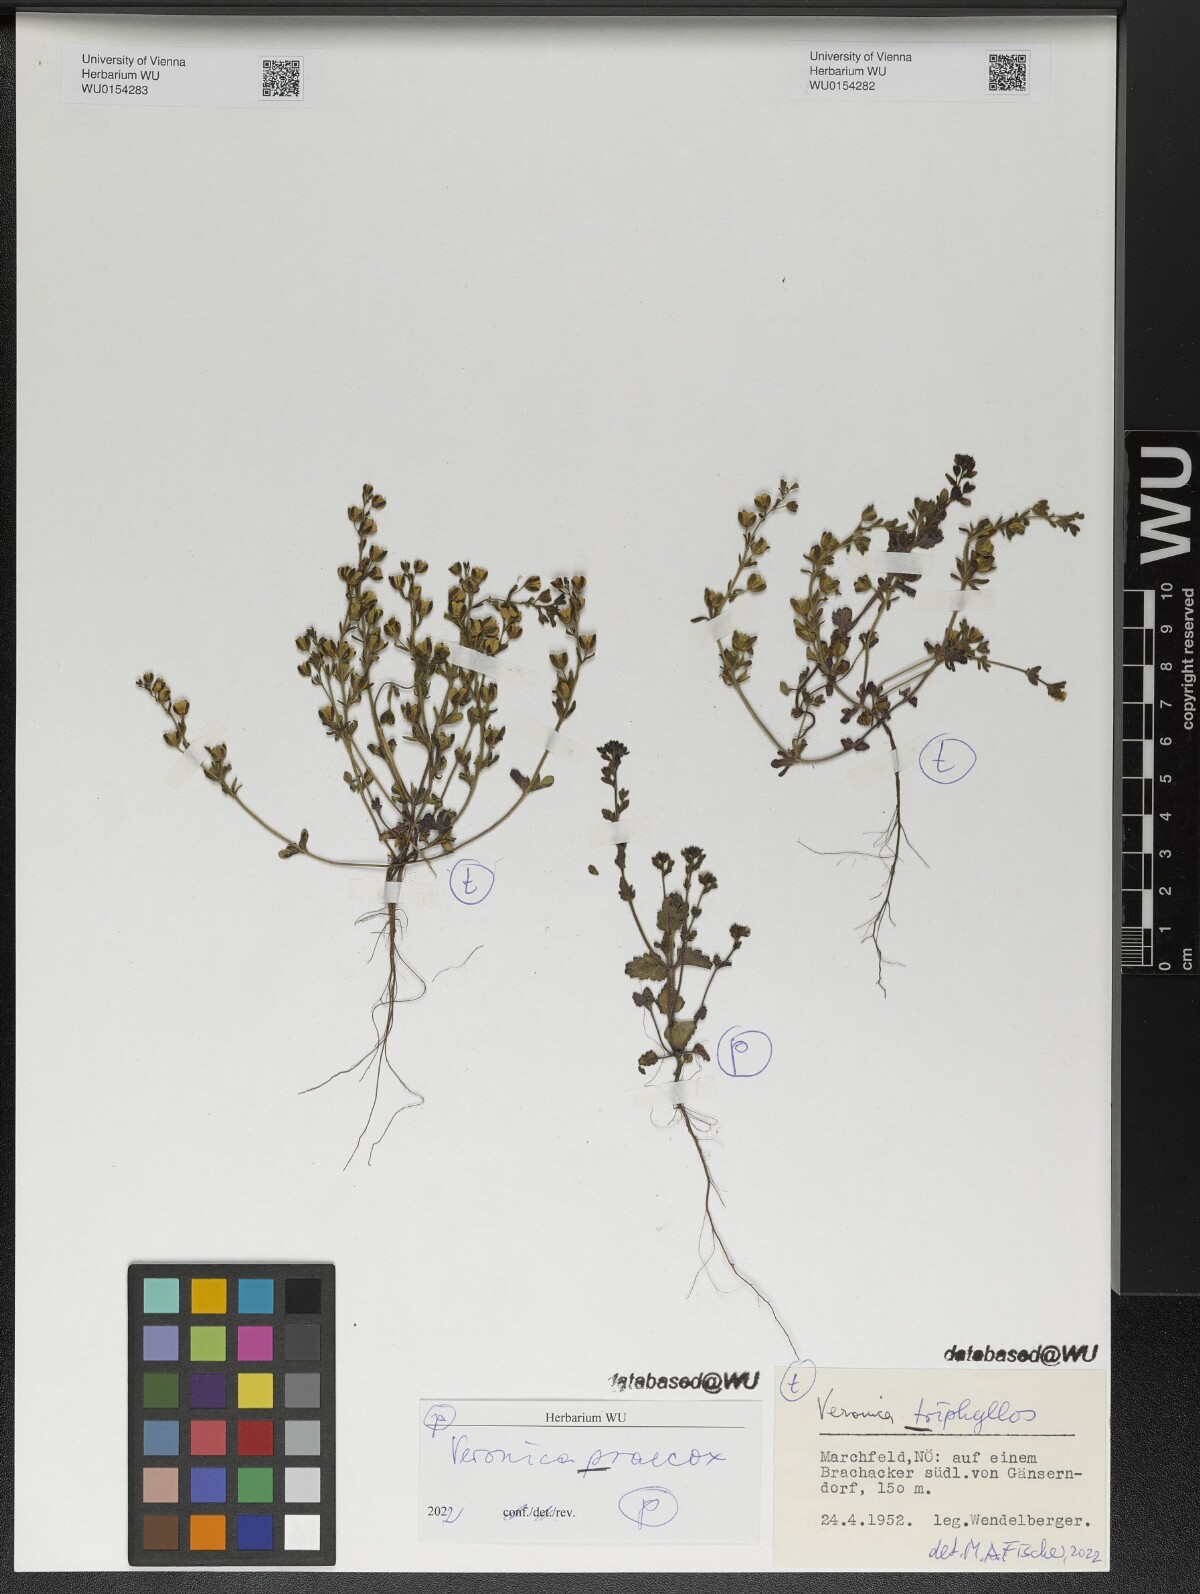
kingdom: Plantae
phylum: Tracheophyta
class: Magnoliopsida
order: Lamiales
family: Plantaginaceae
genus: Veronica
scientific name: Veronica triphyllos
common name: Fingered speedwell
